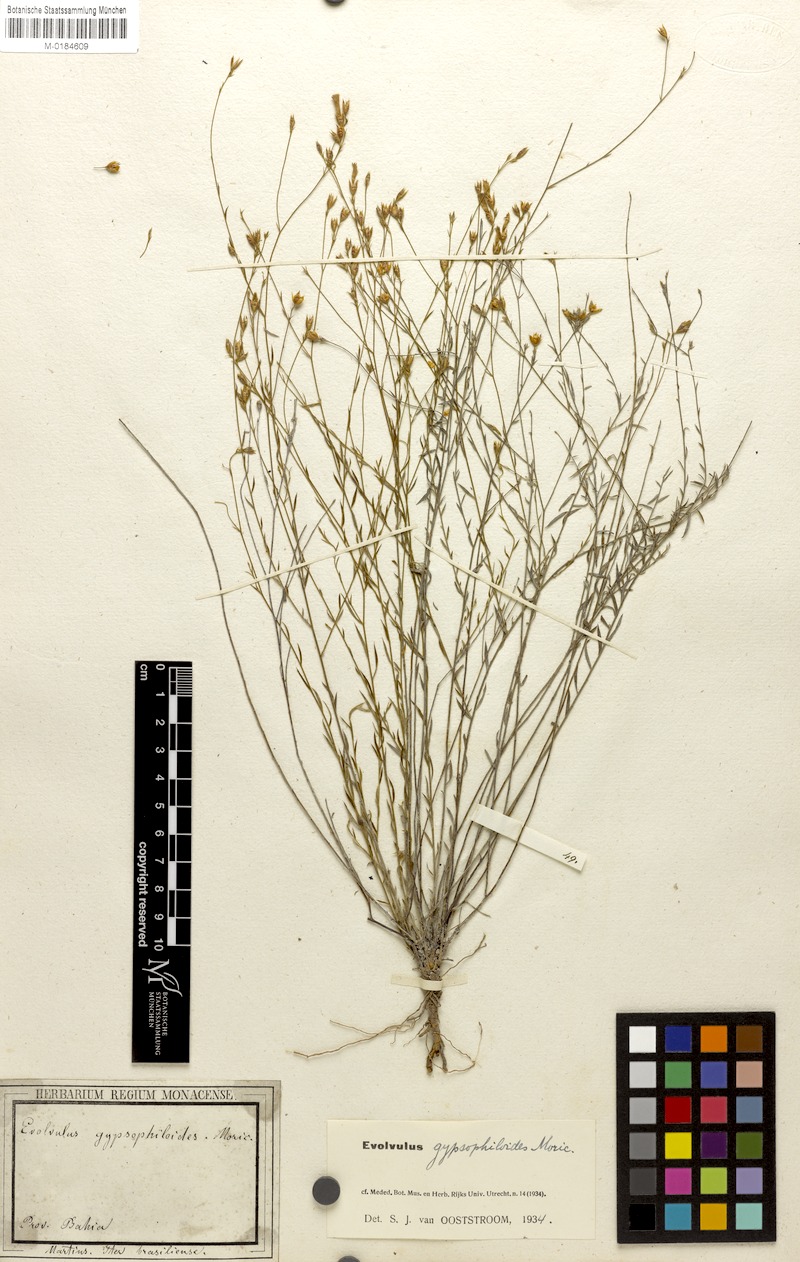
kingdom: Plantae
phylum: Tracheophyta
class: Magnoliopsida
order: Solanales
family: Convolvulaceae
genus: Evolvulus
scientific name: Evolvulus gypsophiloides
